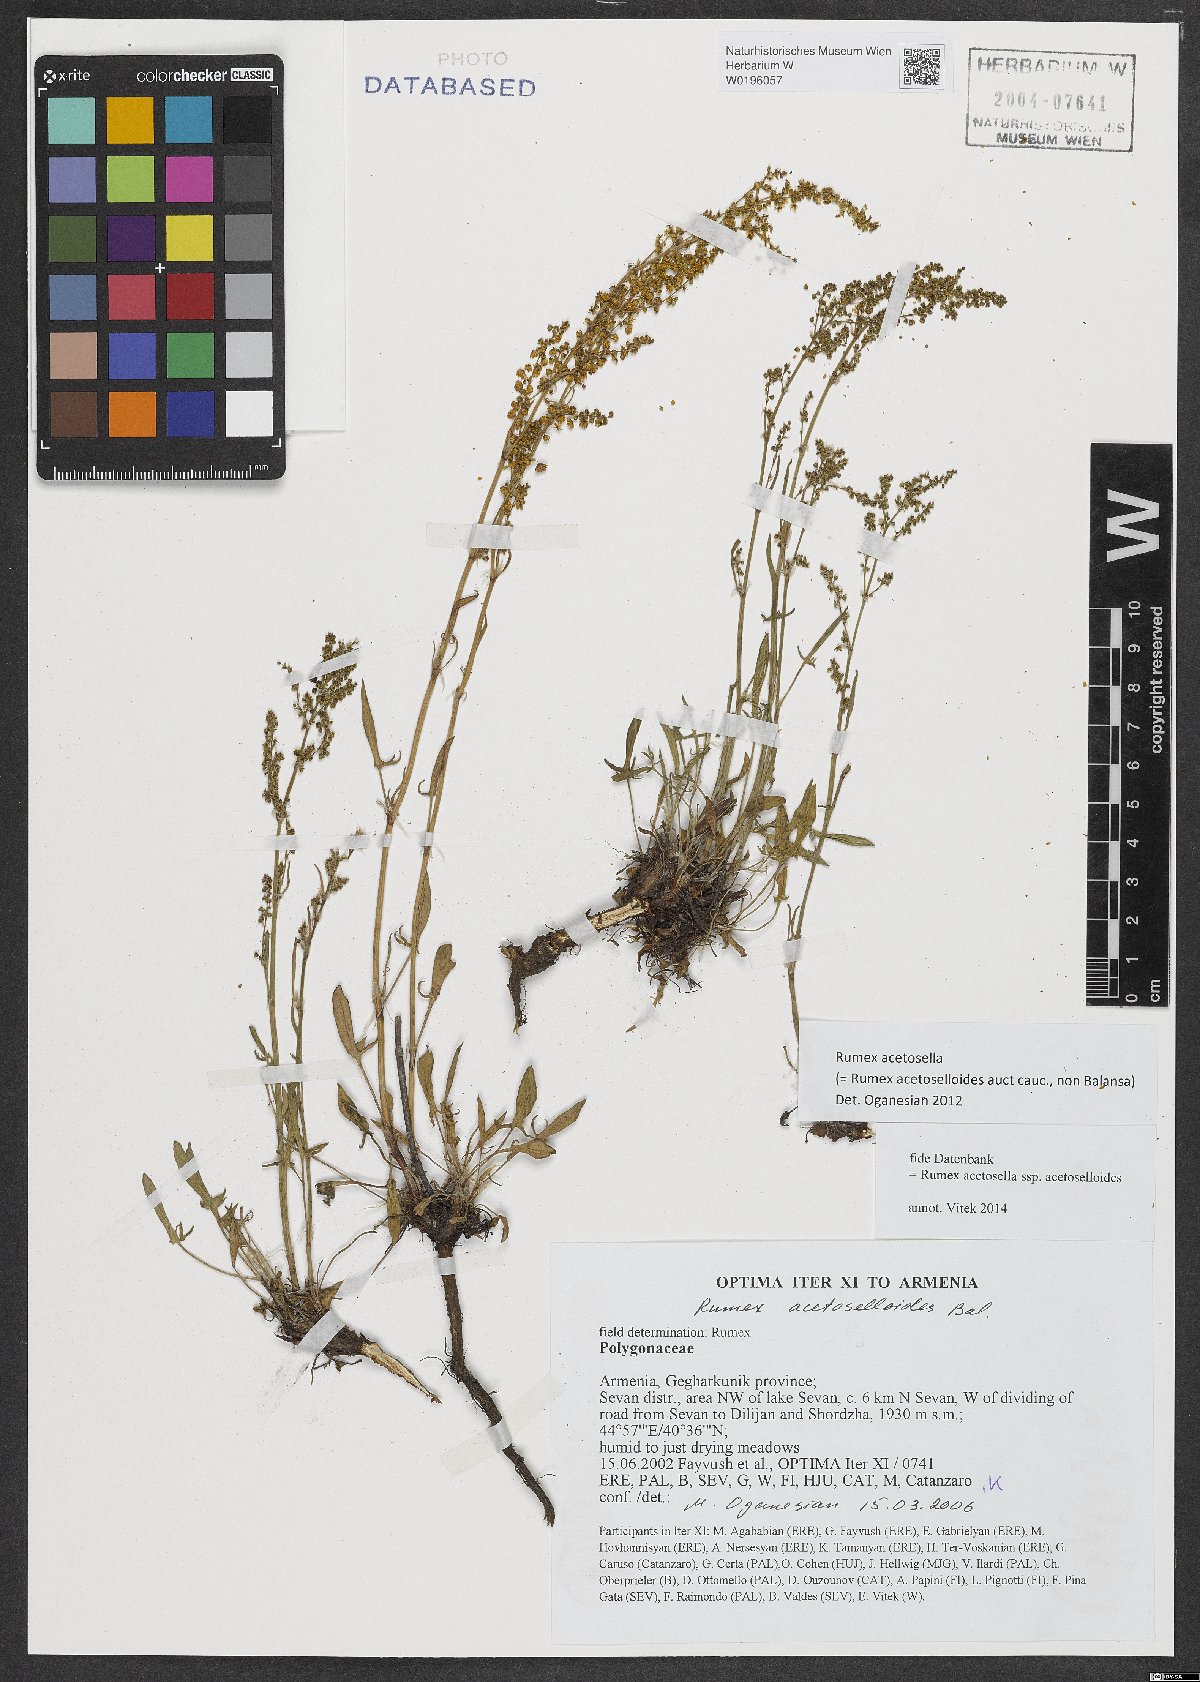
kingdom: Plantae
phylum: Tracheophyta
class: Magnoliopsida
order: Caryophyllales
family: Polygonaceae
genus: Rumex
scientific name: Rumex acetosella
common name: Common sheep sorrel
